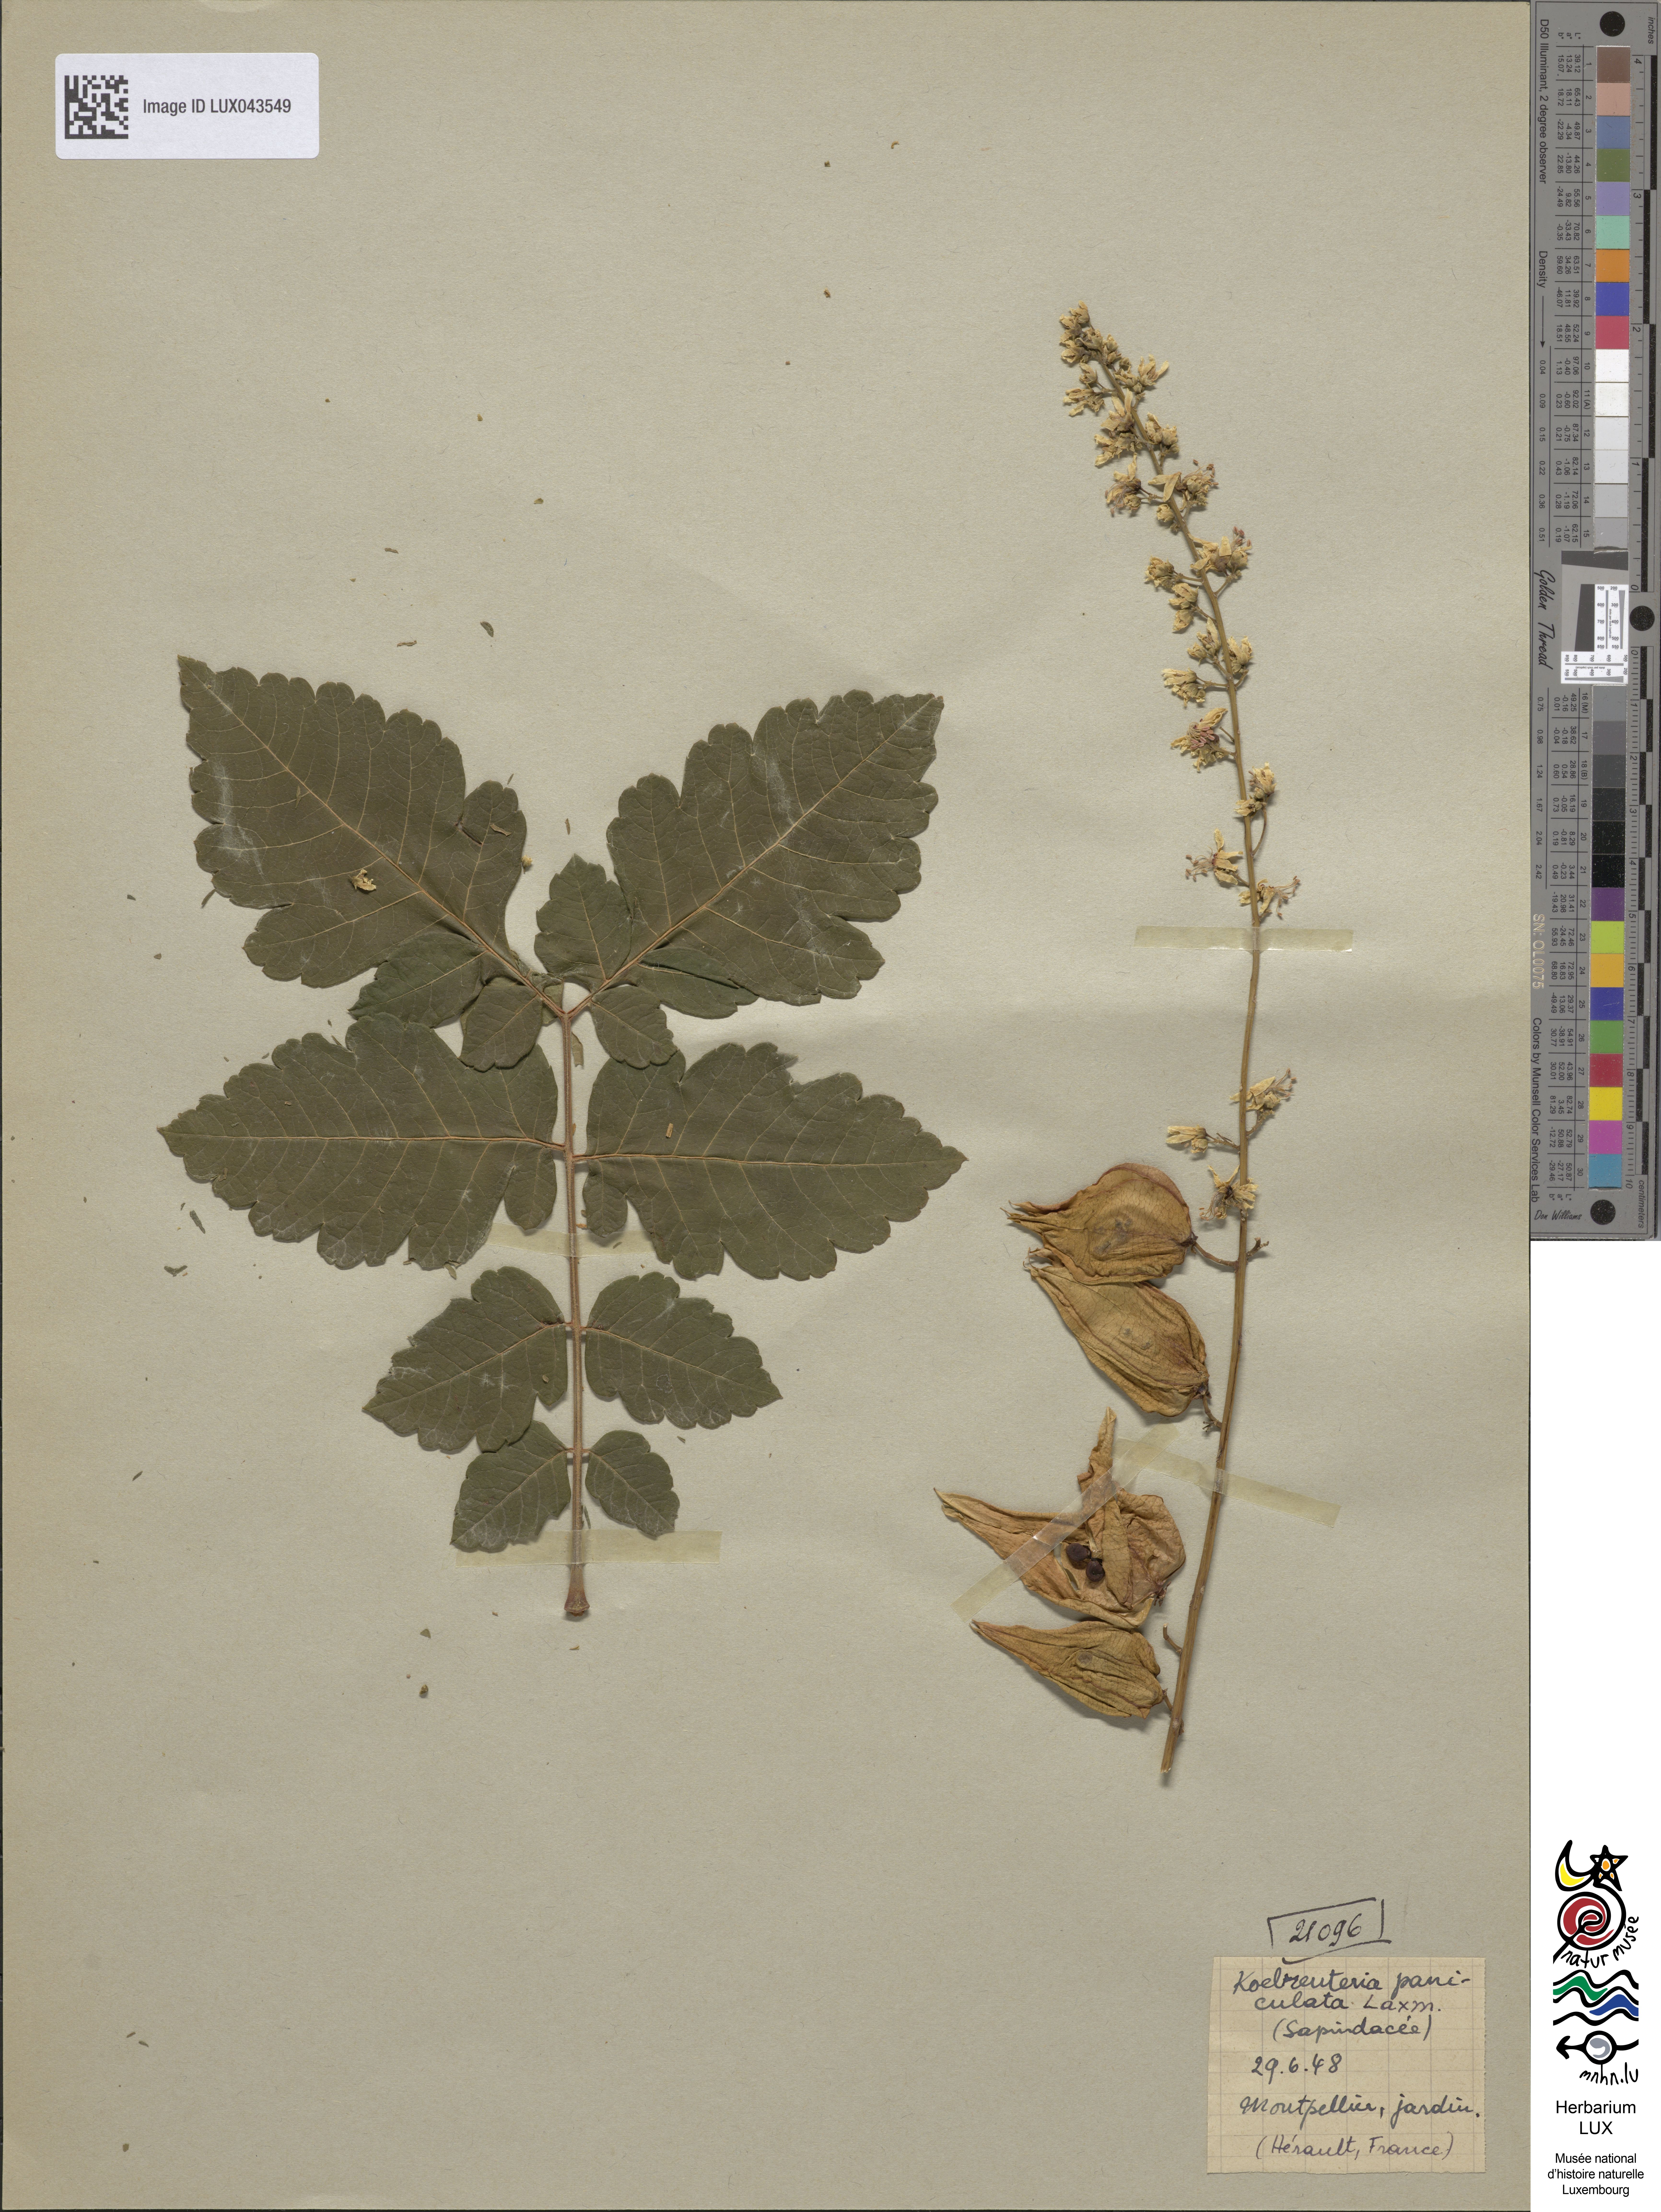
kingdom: Plantae
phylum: Tracheophyta
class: Magnoliopsida
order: Sapindales
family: Sapindaceae
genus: Koelreuteria
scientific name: Koelreuteria paniculata
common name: Pride-of-india
